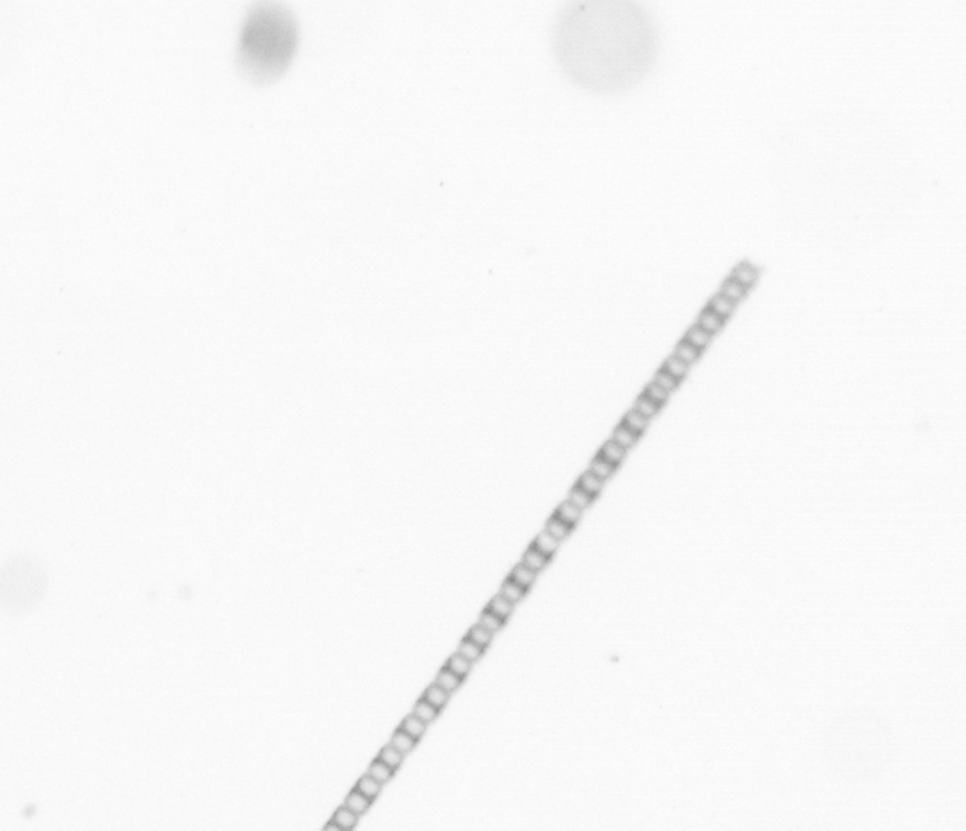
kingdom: Chromista
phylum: Ochrophyta
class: Bacillariophyceae
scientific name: Bacillariophyceae
